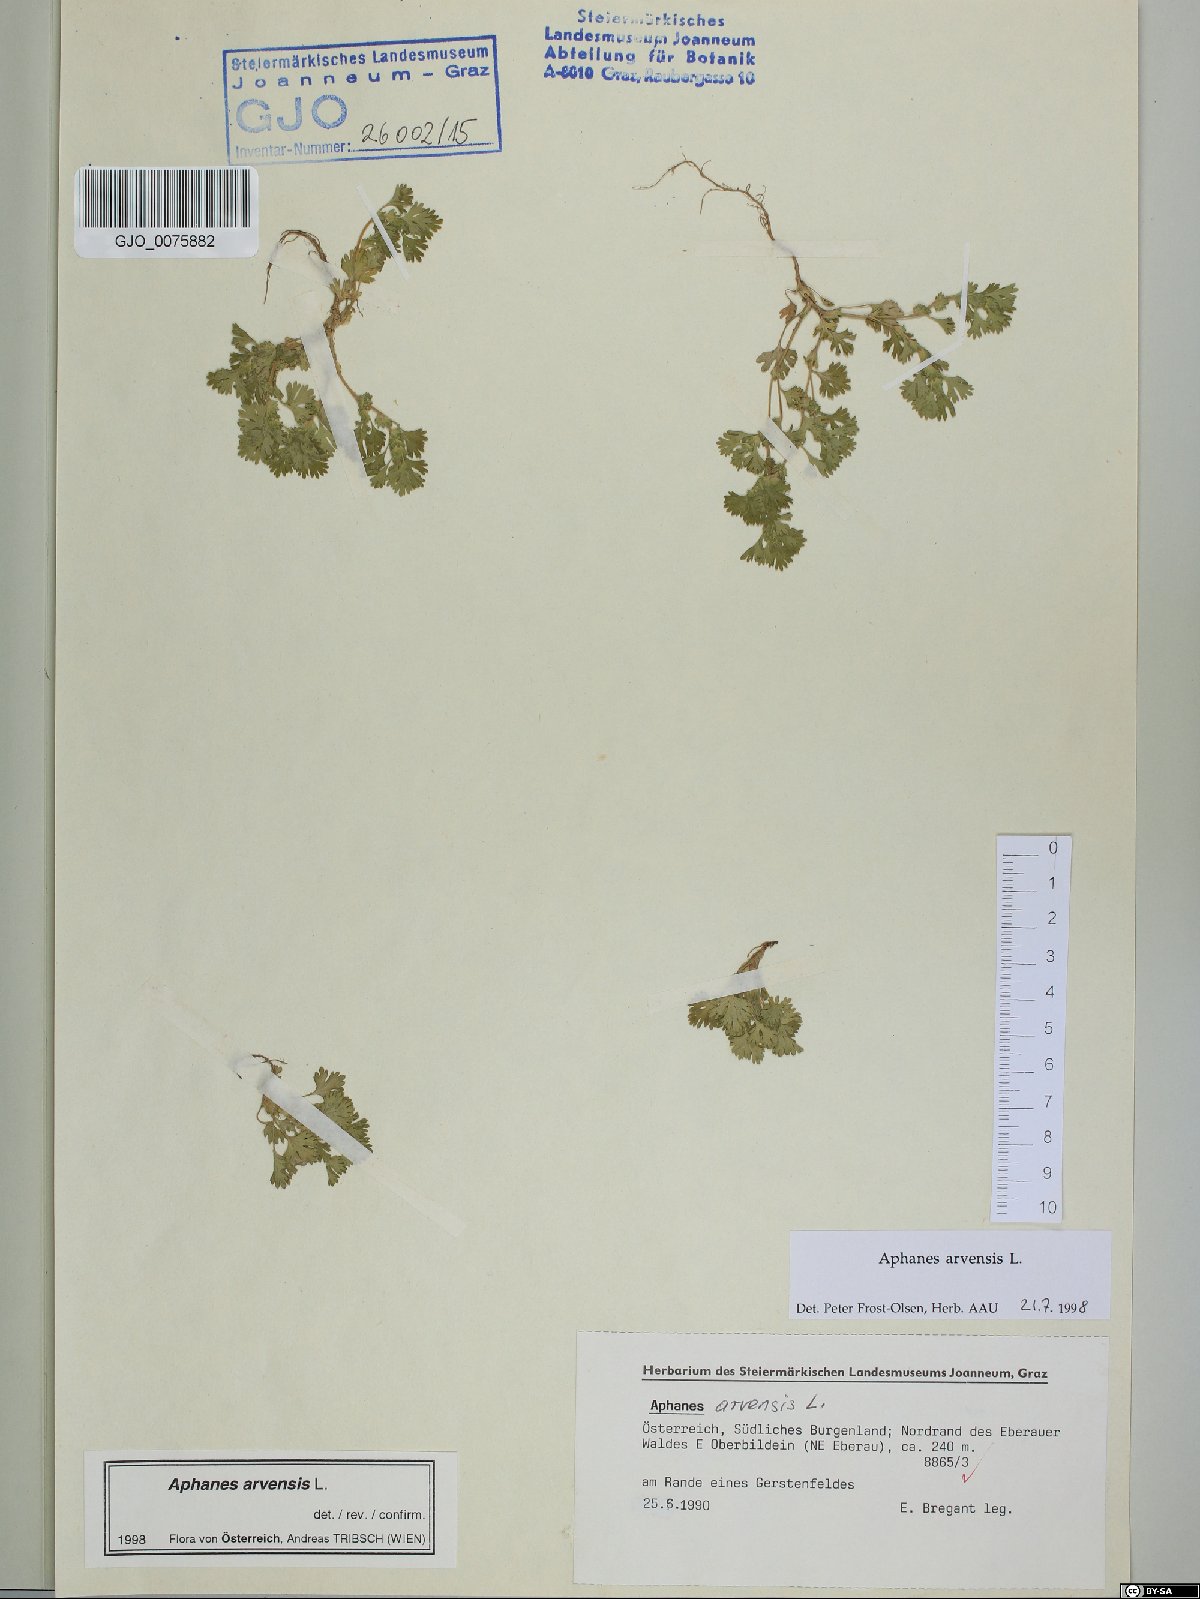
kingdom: Plantae
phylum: Tracheophyta
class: Magnoliopsida
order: Rosales
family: Rosaceae
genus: Aphanes
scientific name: Aphanes arvensis
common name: Parsley-piert
